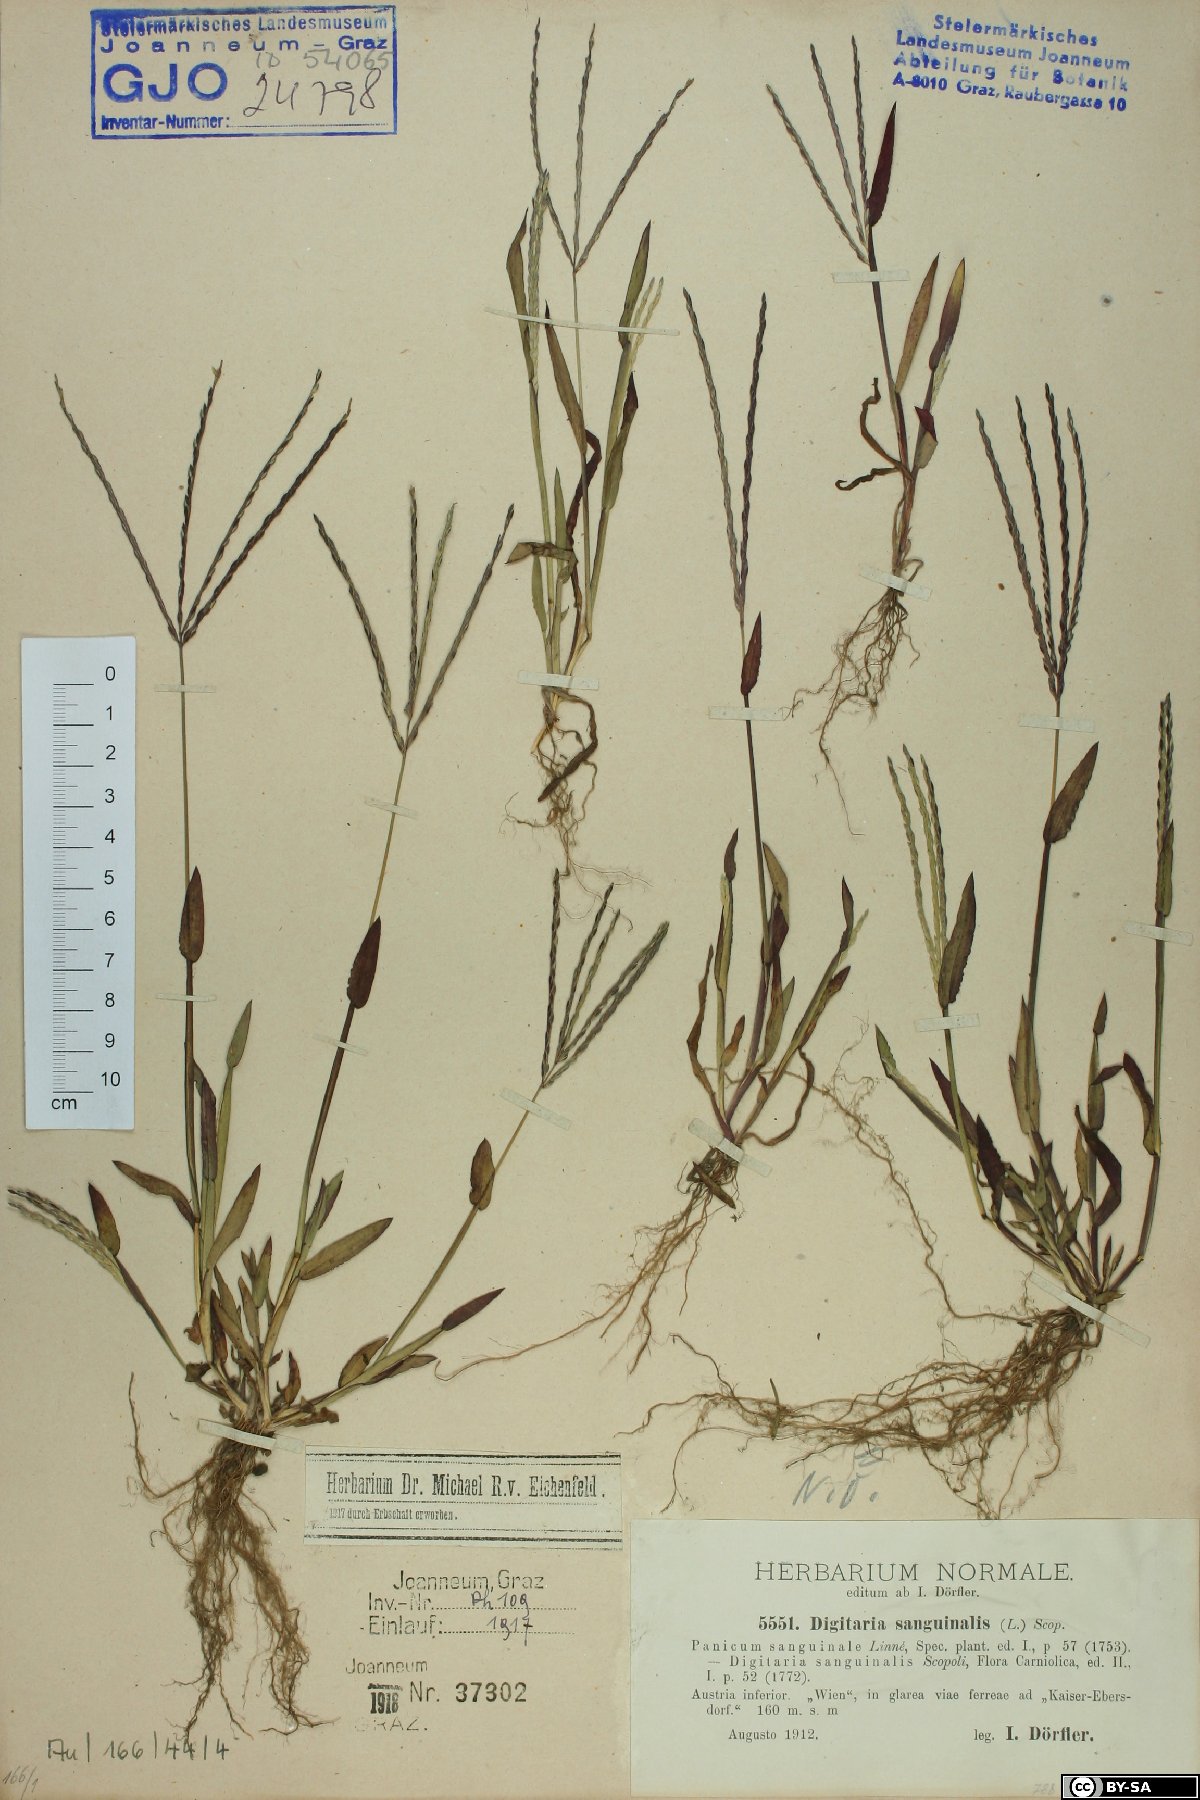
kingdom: Plantae
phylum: Tracheophyta
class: Liliopsida
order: Poales
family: Poaceae
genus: Digitaria
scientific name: Digitaria sanguinalis
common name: Hairy crabgrass
